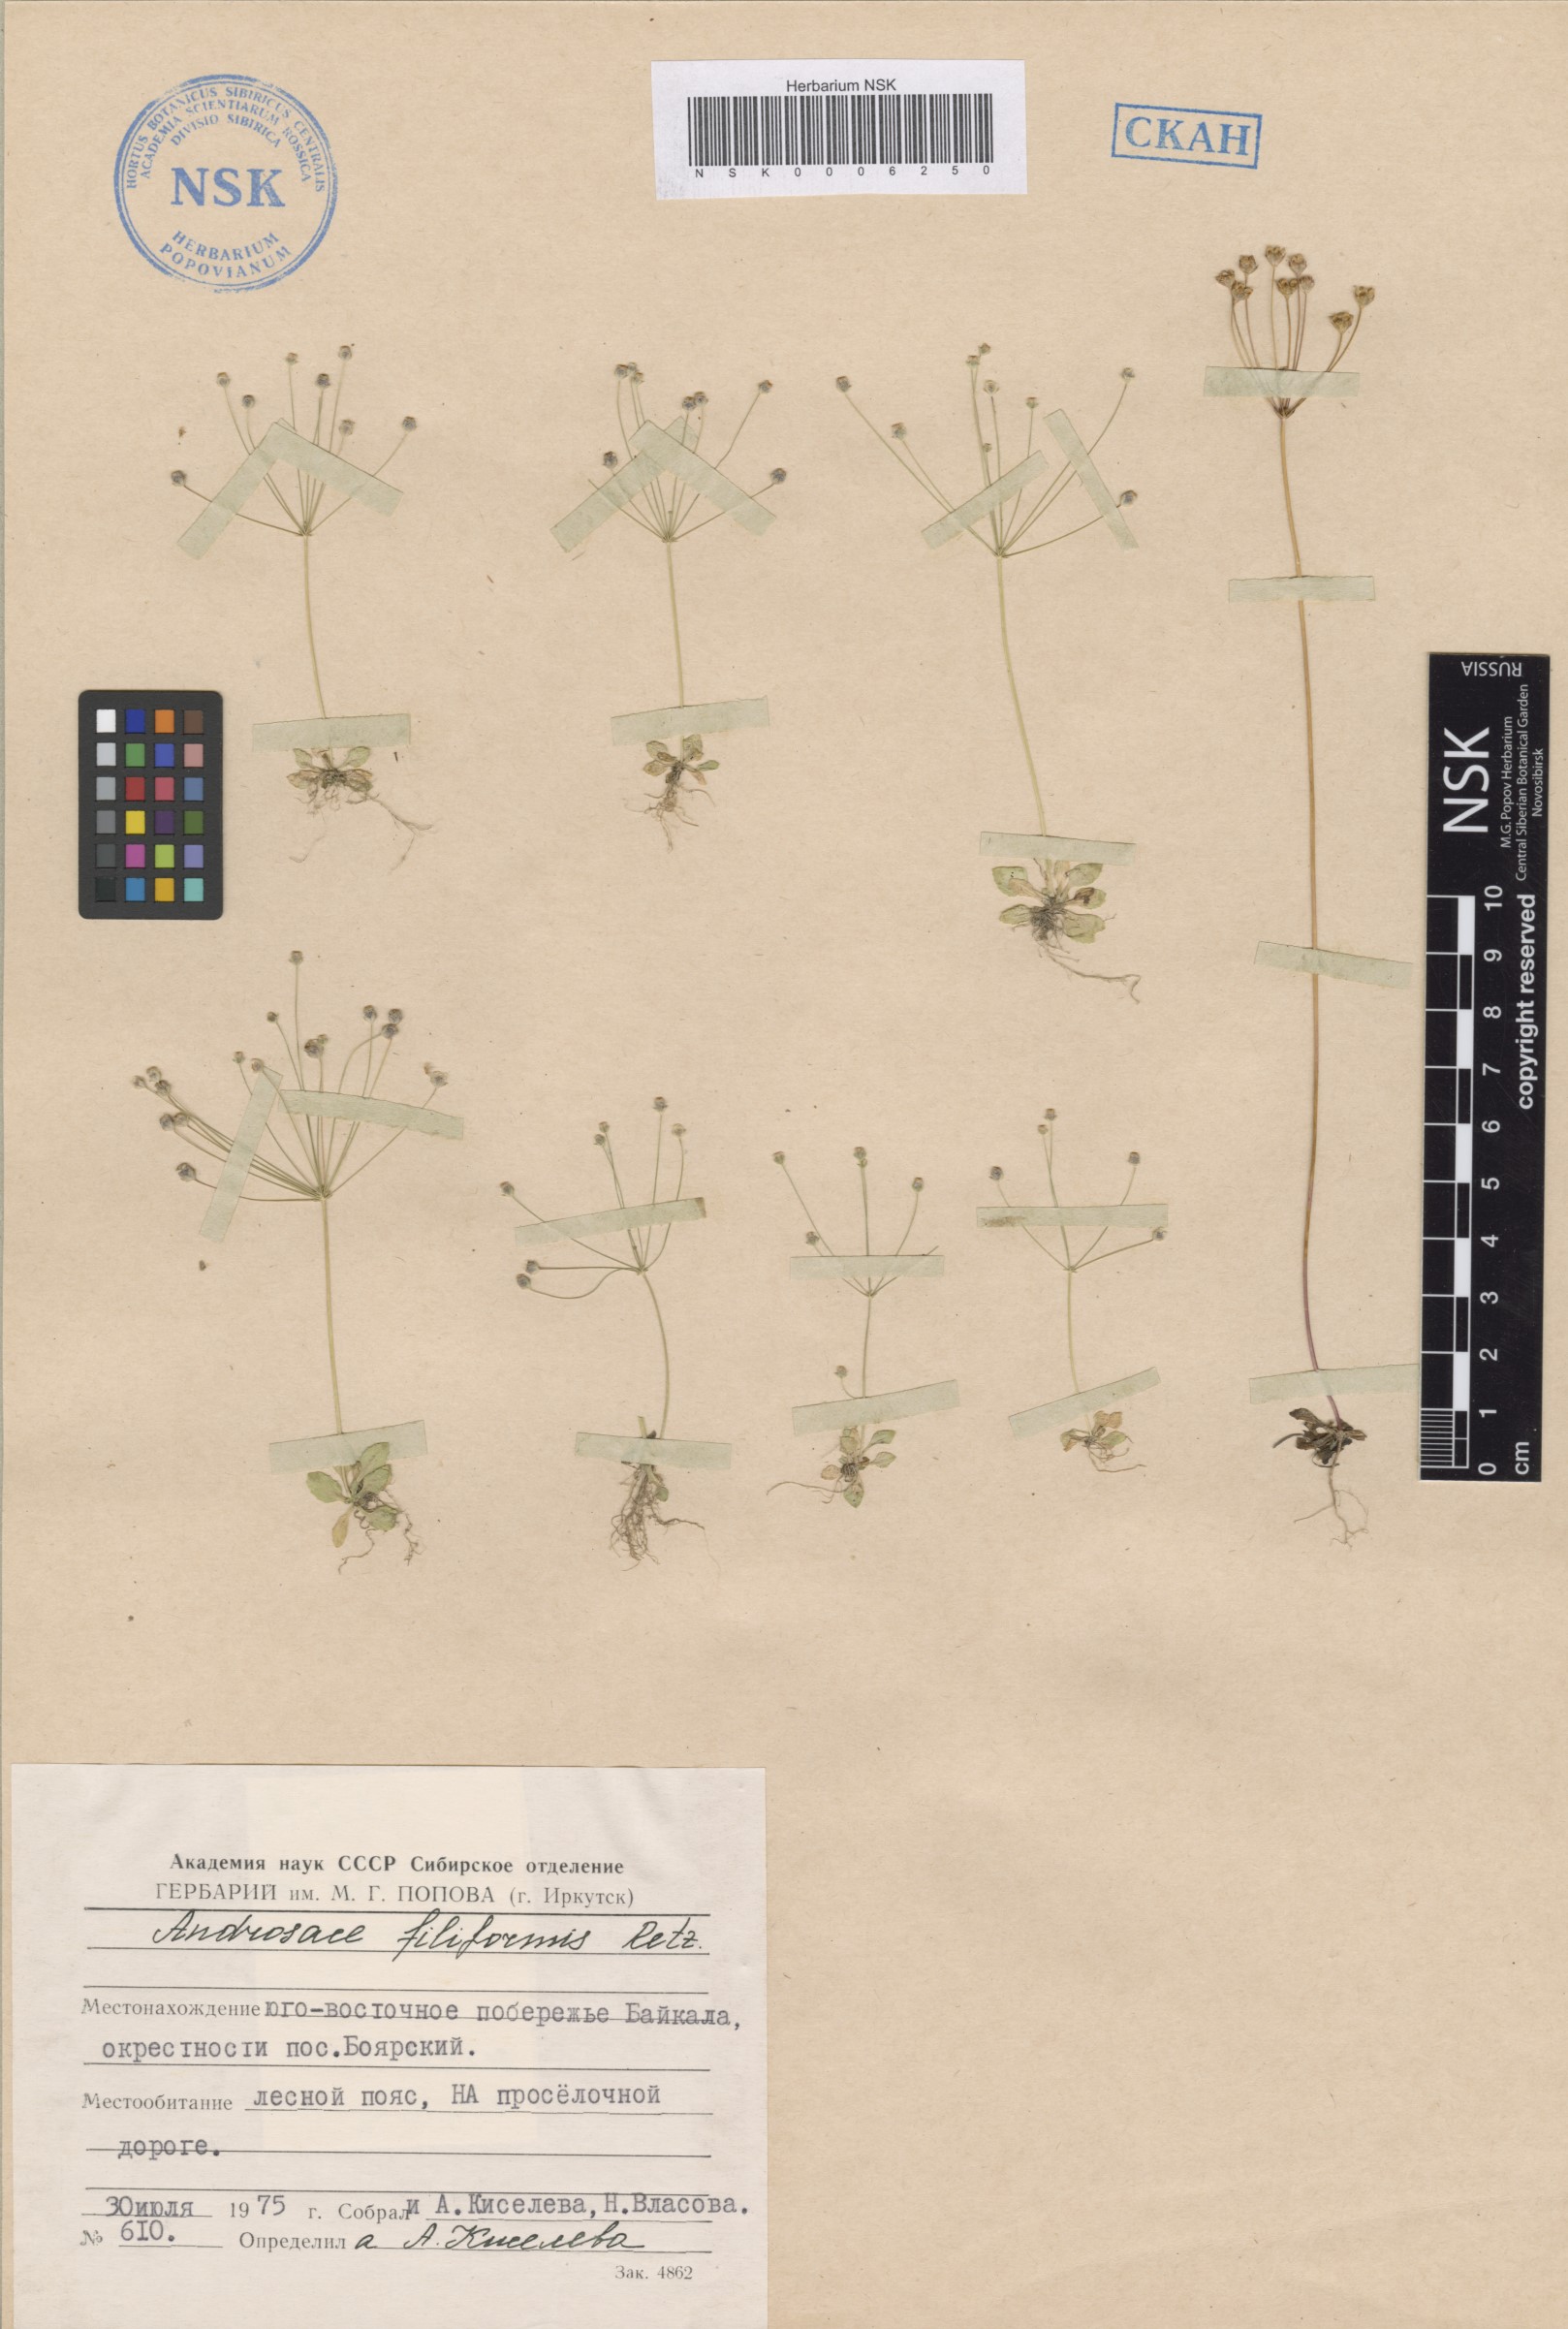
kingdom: Plantae
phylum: Tracheophyta
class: Magnoliopsida
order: Ericales
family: Primulaceae
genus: Androsace
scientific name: Androsace filiformis
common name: Filiform rock jasmine
